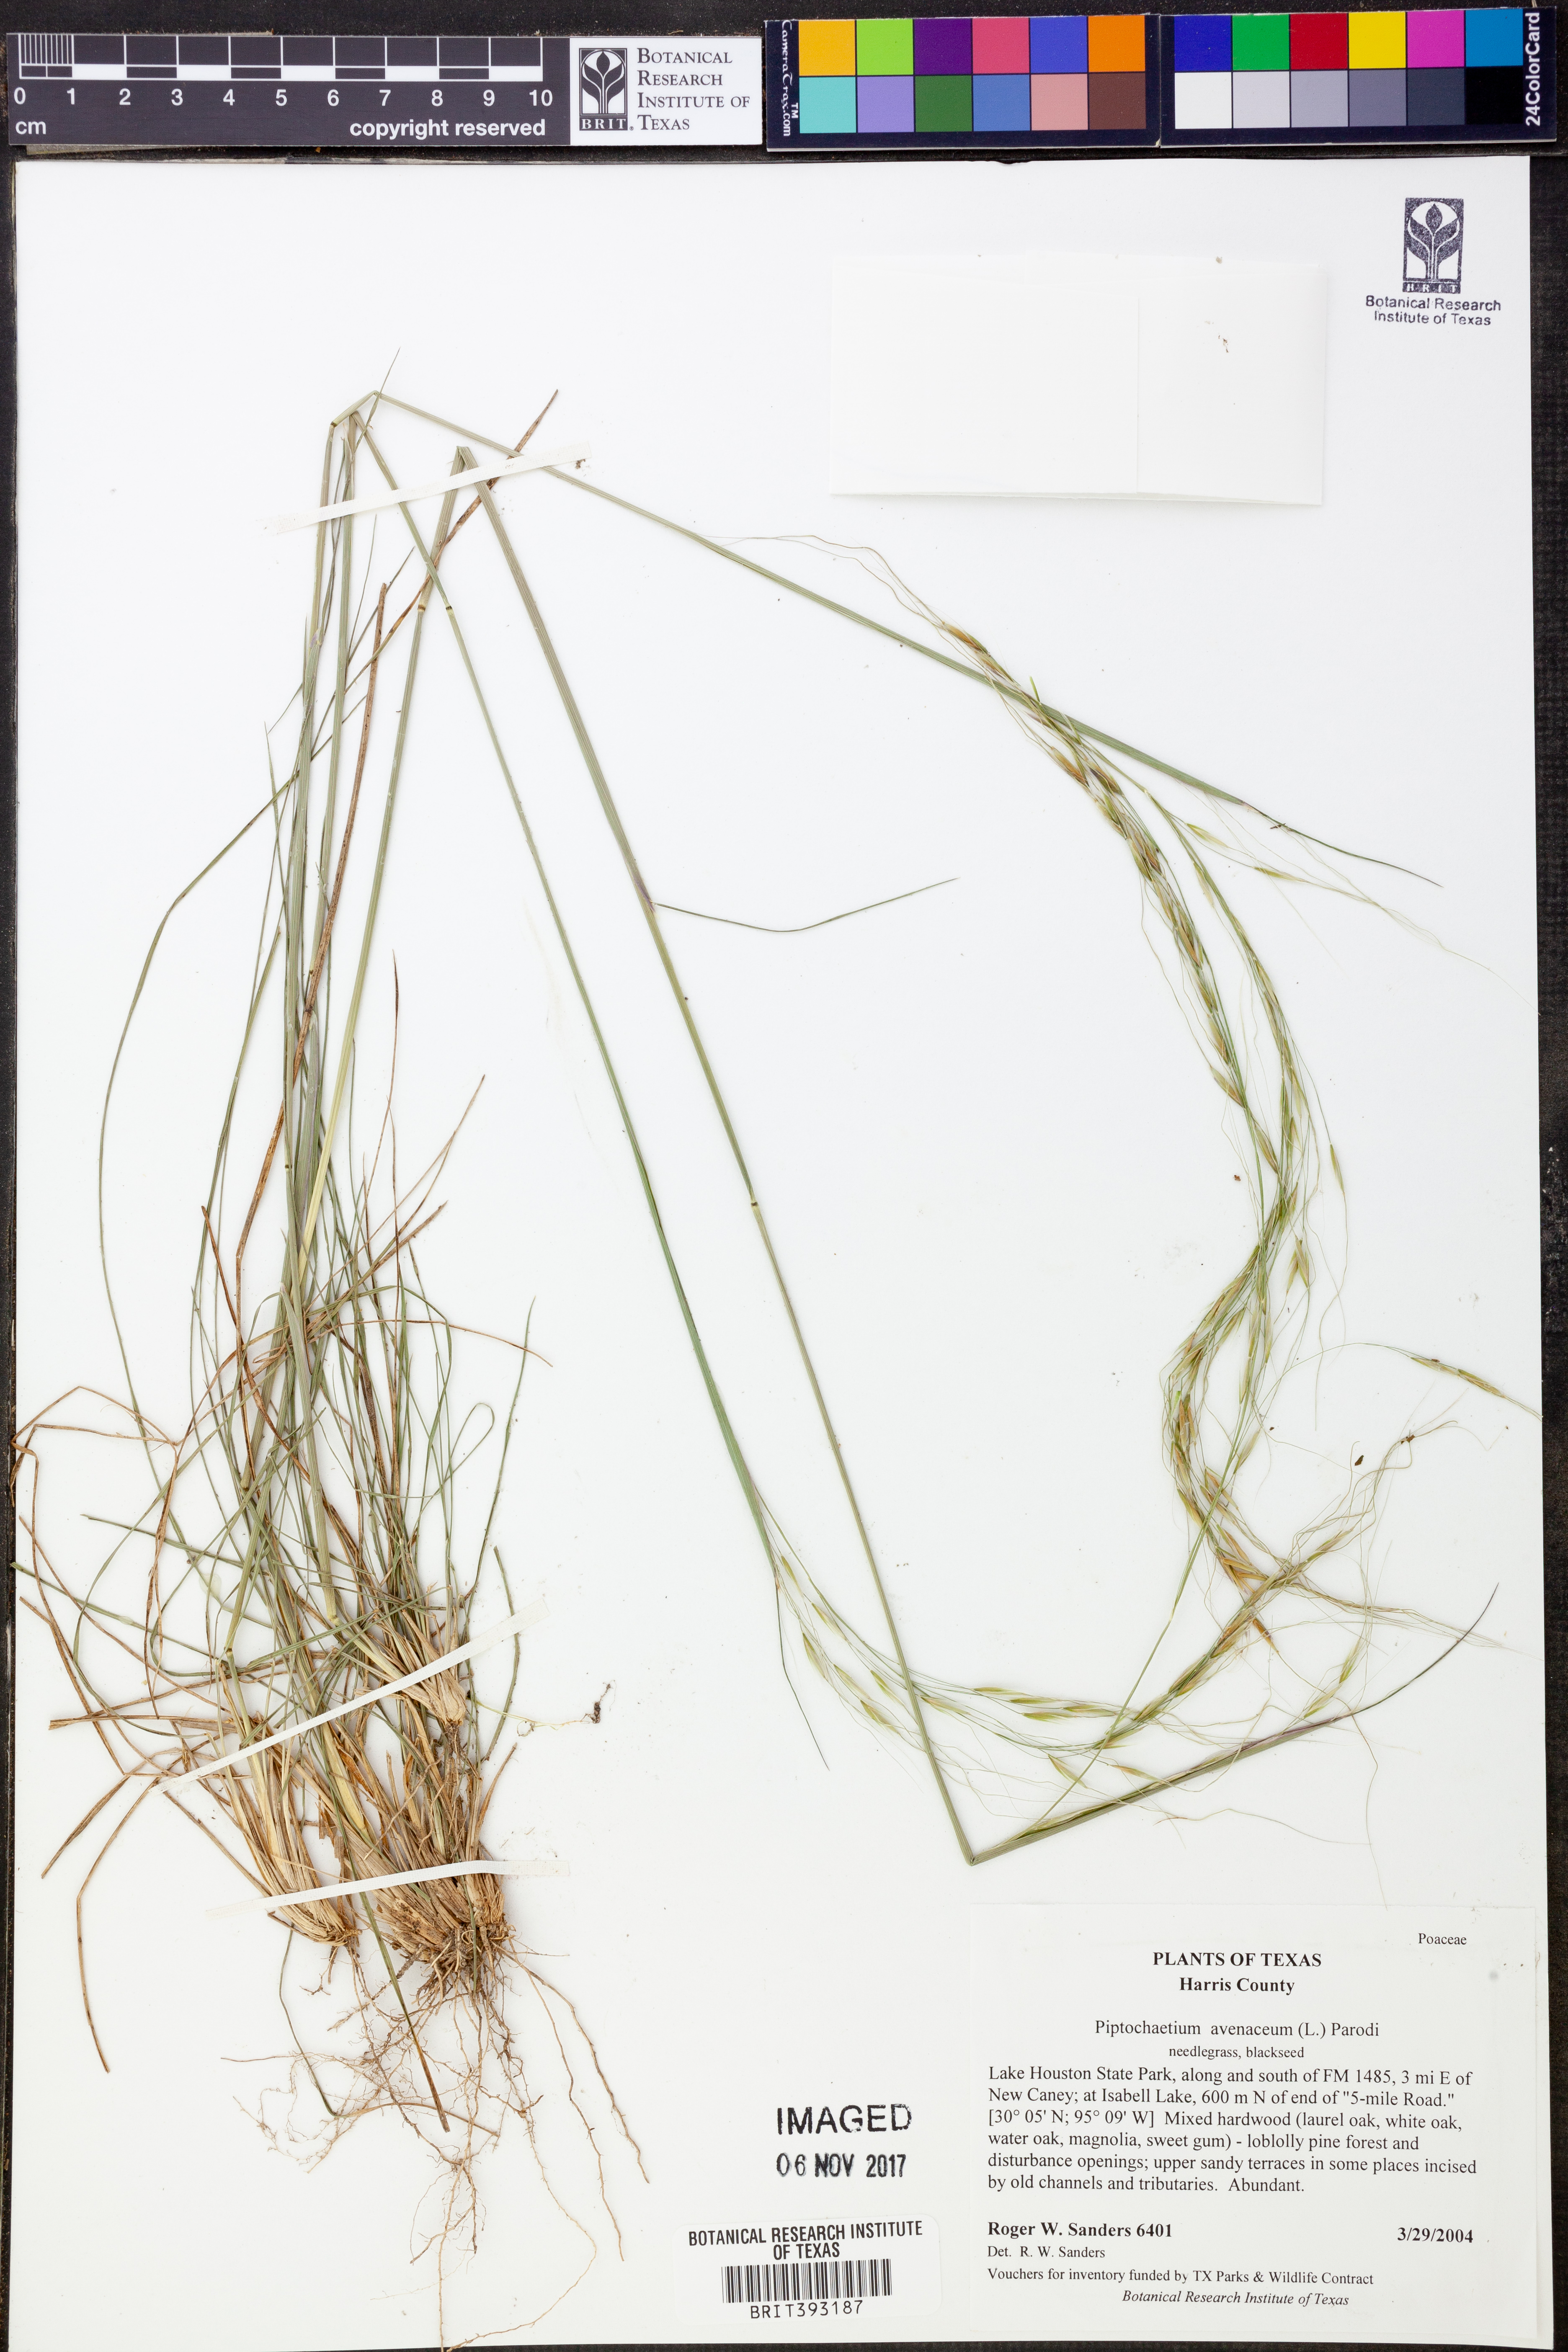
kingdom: Plantae
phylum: Tracheophyta
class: Liliopsida
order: Poales
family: Poaceae
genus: Piptochaetium
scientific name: Piptochaetium avenaceum
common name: Black bunchgrass
